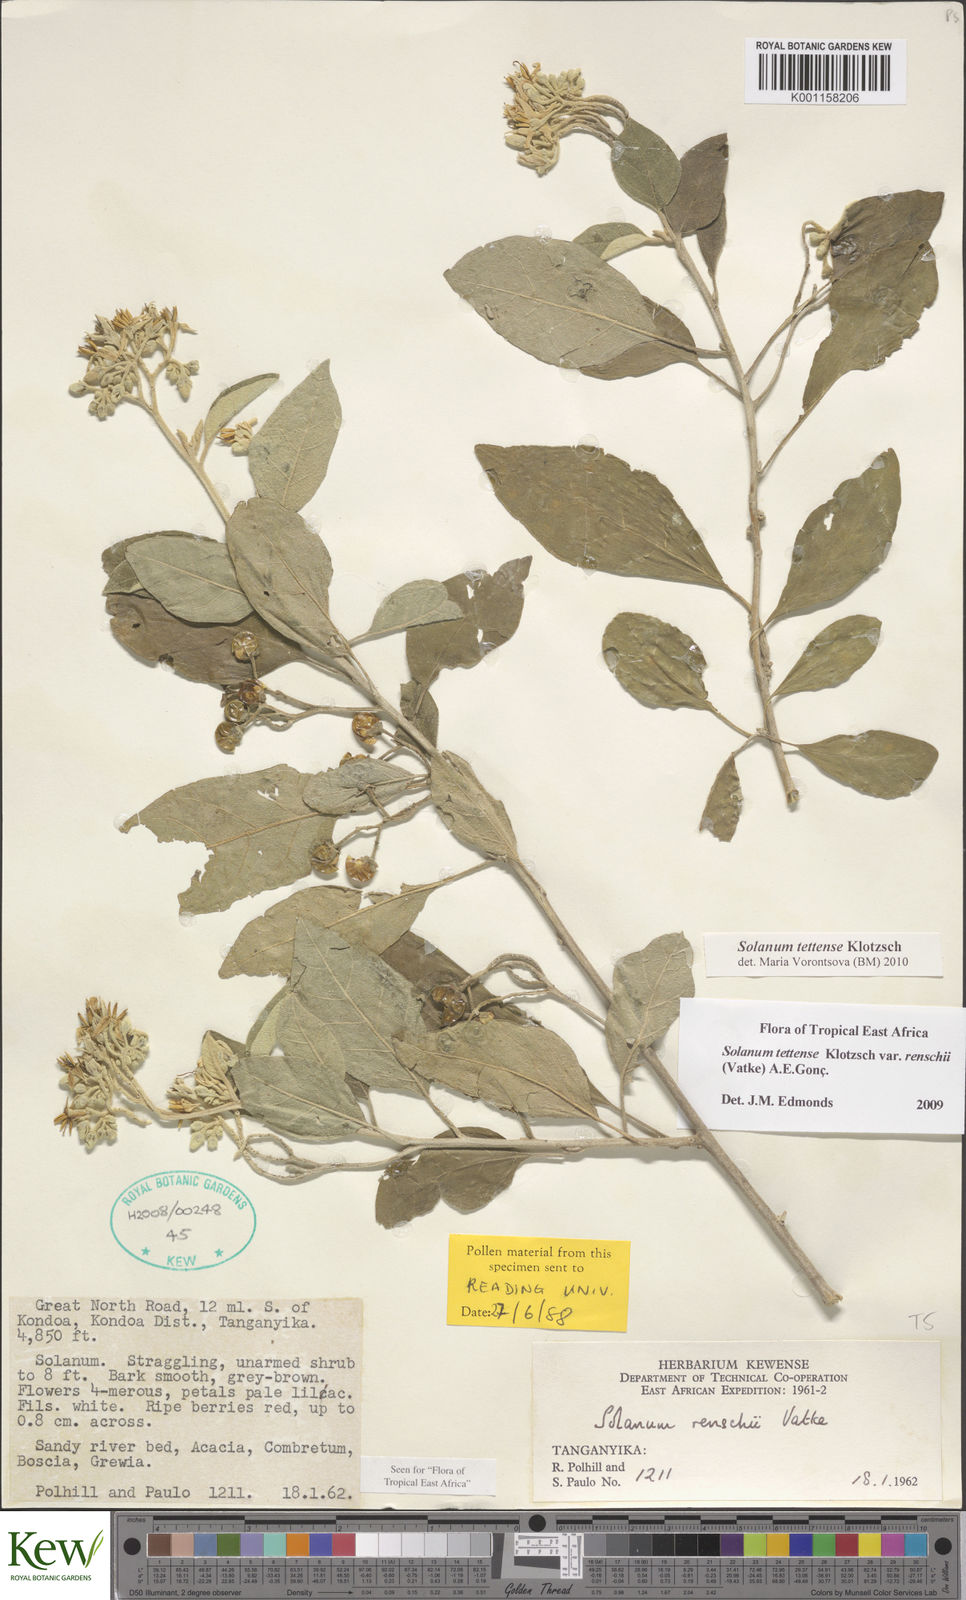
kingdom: Plantae
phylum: Tracheophyta
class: Magnoliopsida
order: Solanales
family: Solanaceae
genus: Solanum
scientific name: Solanum tettense
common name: Mozambique bitter apple
